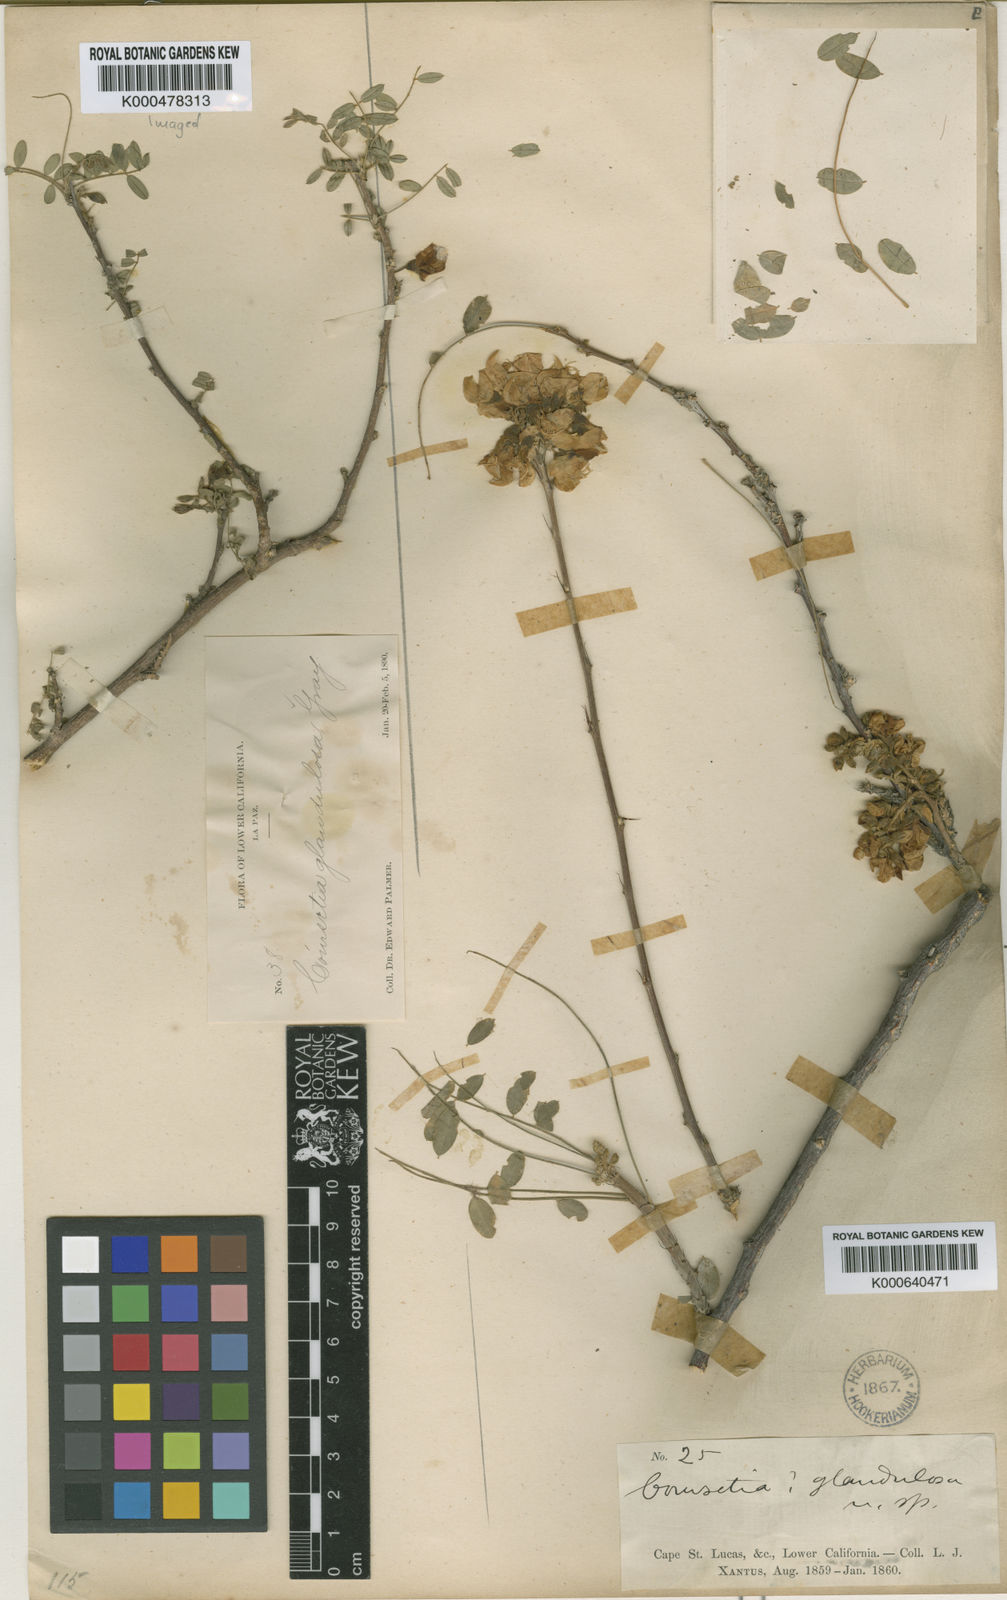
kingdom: Plantae
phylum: Tracheophyta
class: Magnoliopsida
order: Fabales
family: Fabaceae
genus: Coursetia
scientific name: Coursetia glandulosa
